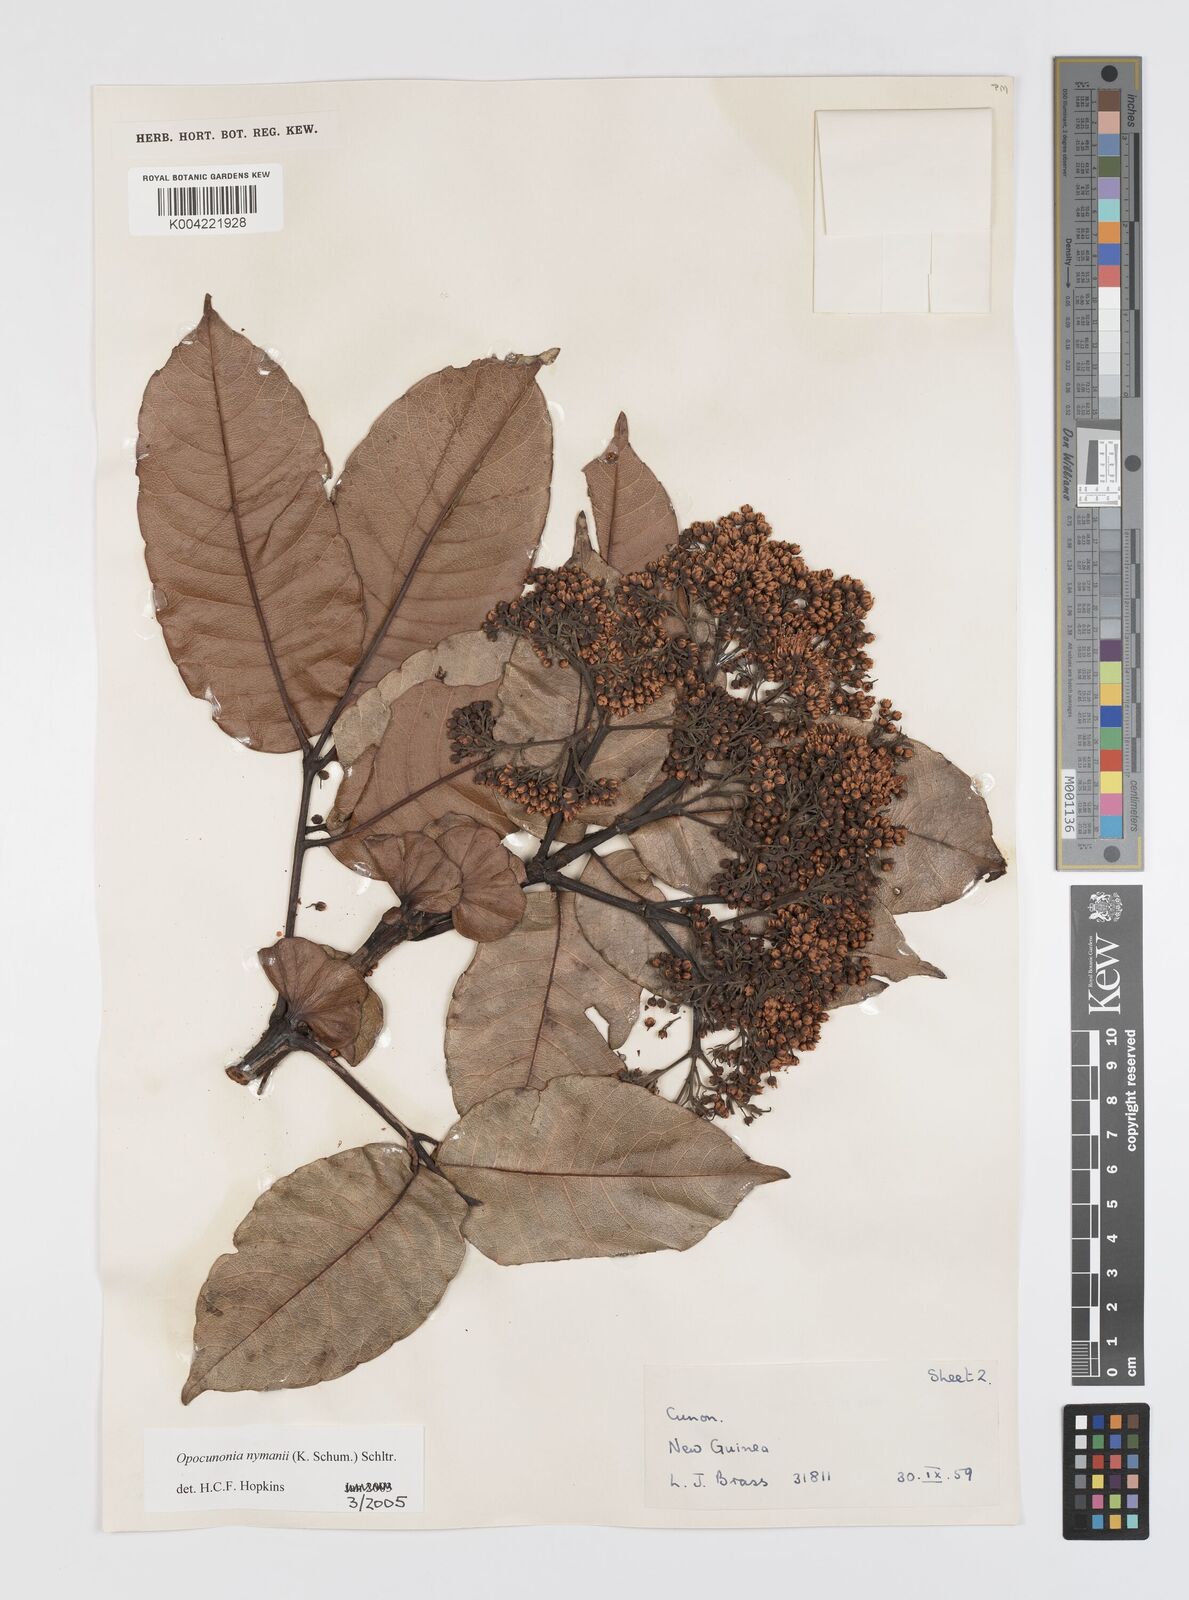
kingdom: Plantae
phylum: Tracheophyta
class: Magnoliopsida
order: Oxalidales
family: Cunoniaceae
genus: Opocunonia
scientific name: Opocunonia nymanii
